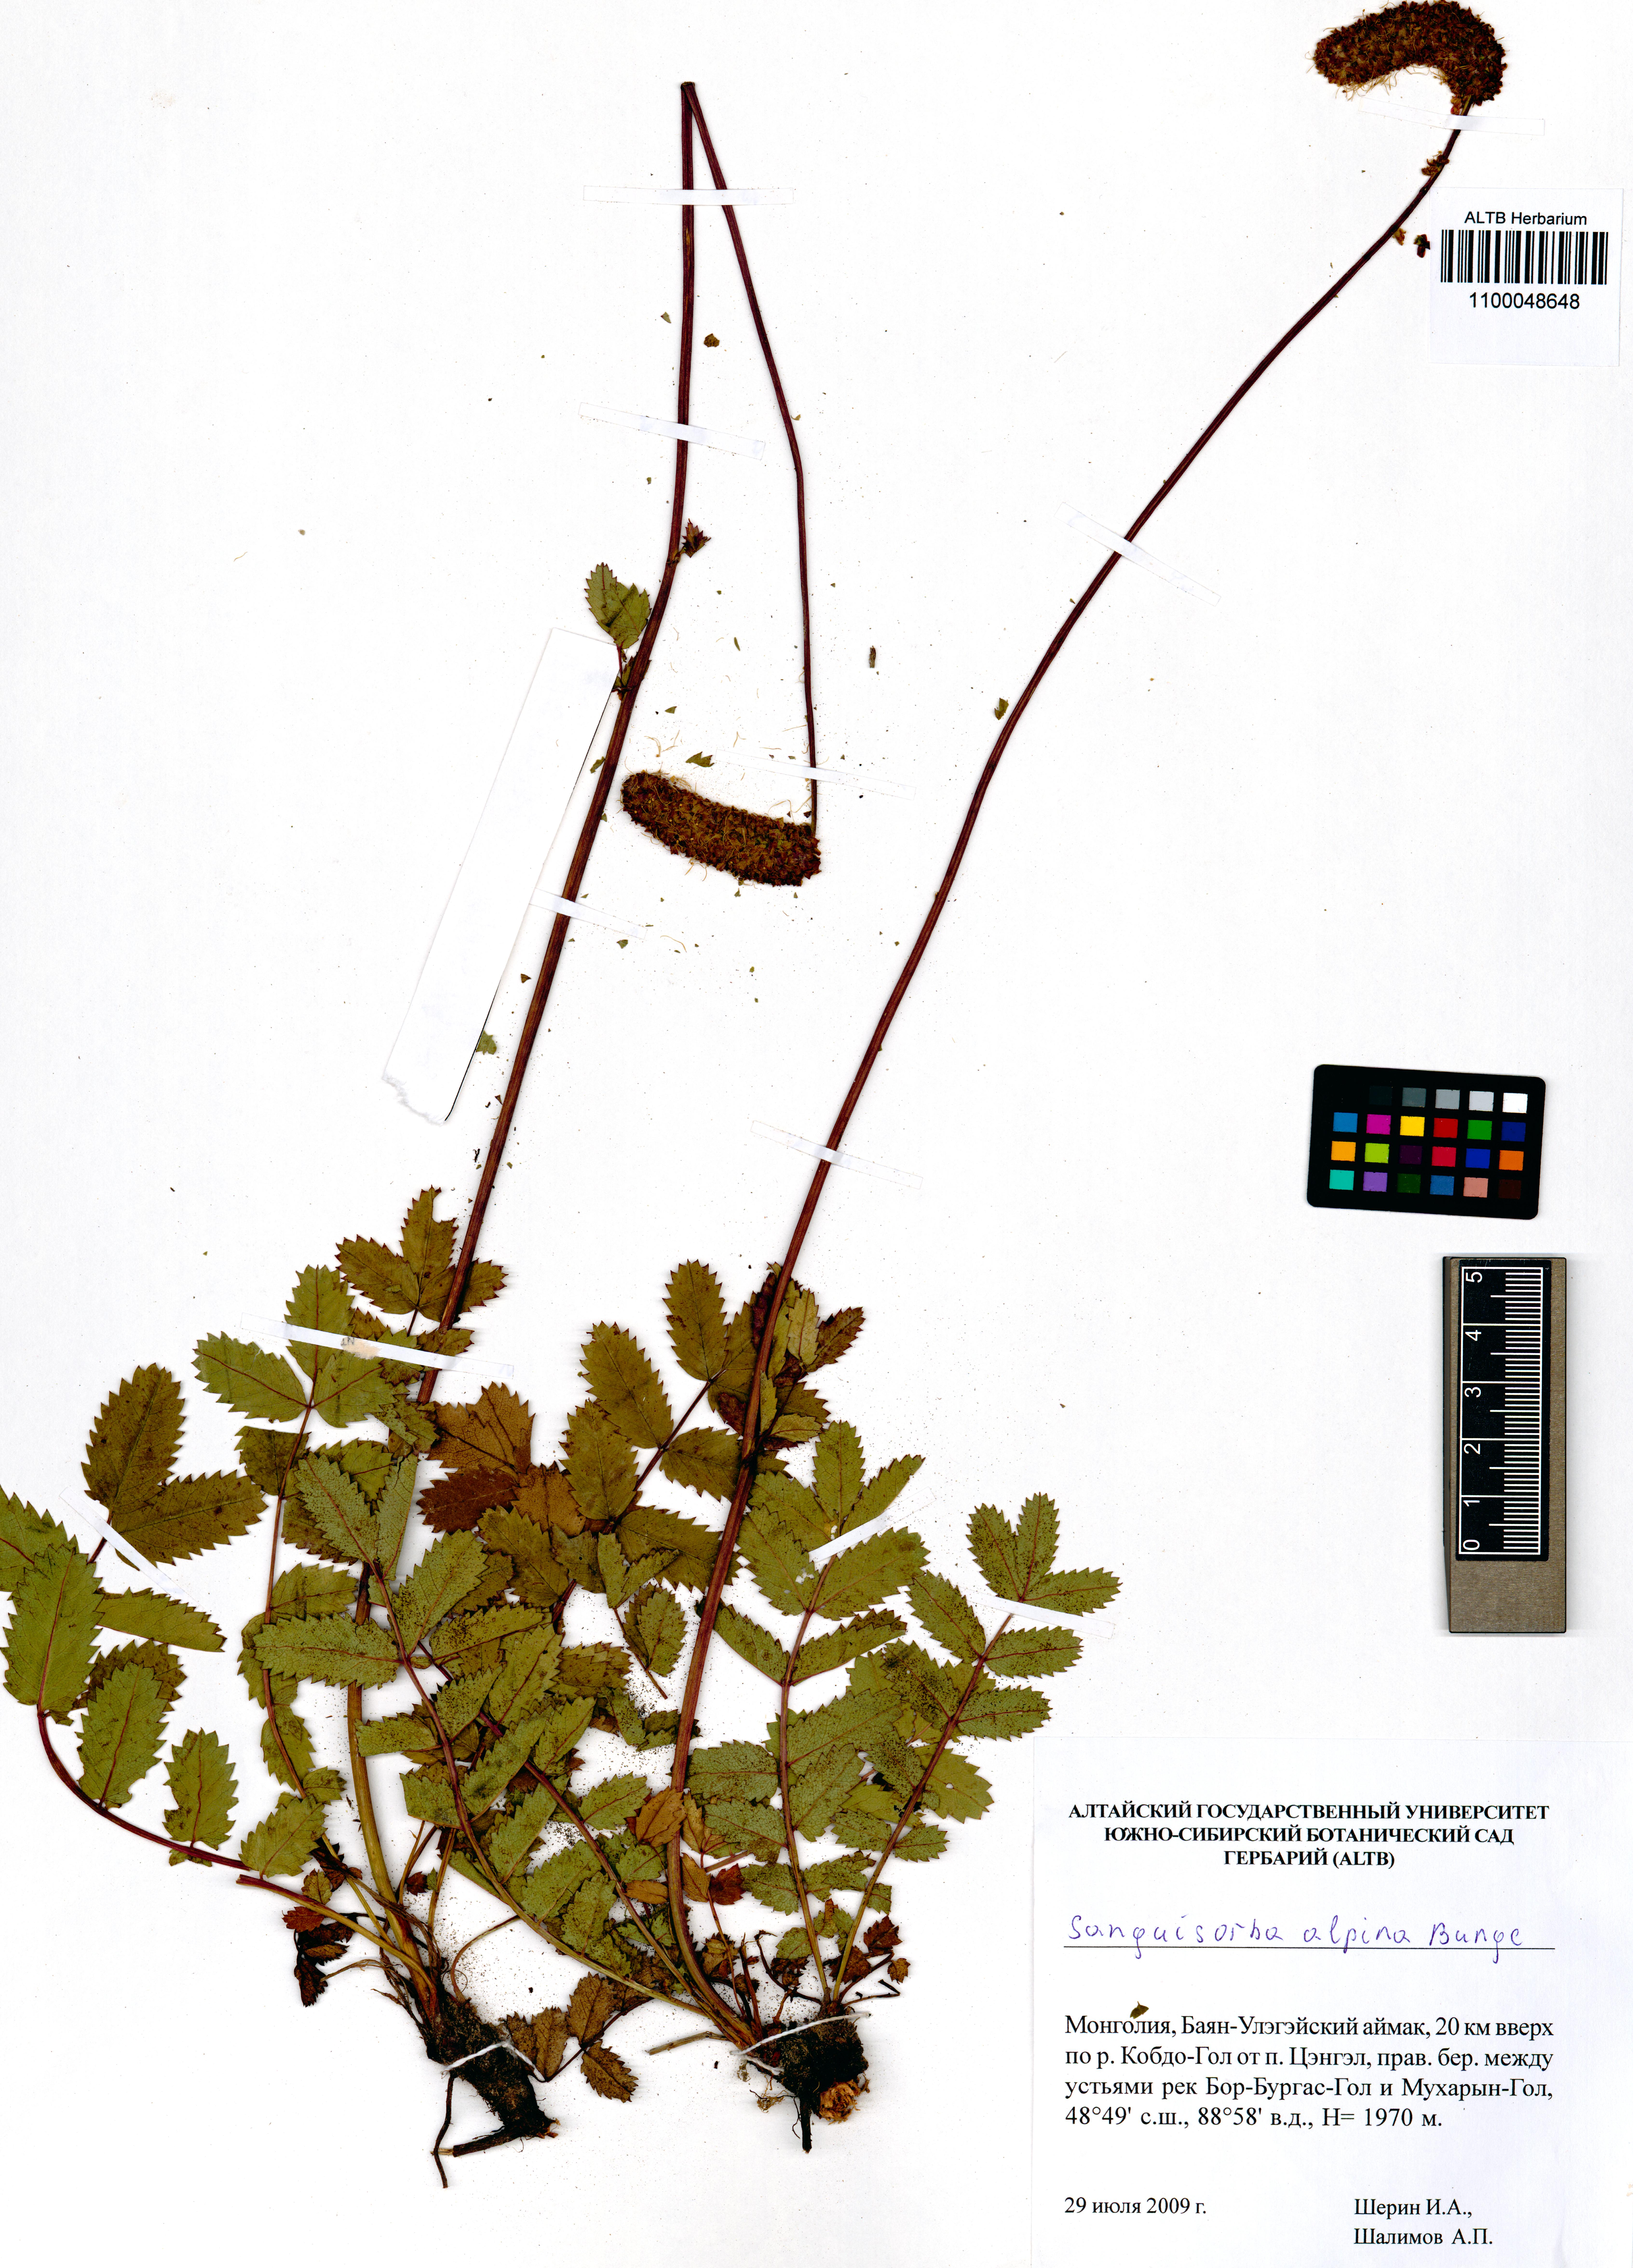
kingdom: Plantae
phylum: Tracheophyta
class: Magnoliopsida
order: Rosales
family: Rosaceae
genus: Sanguisorba
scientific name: Sanguisorba alpina
